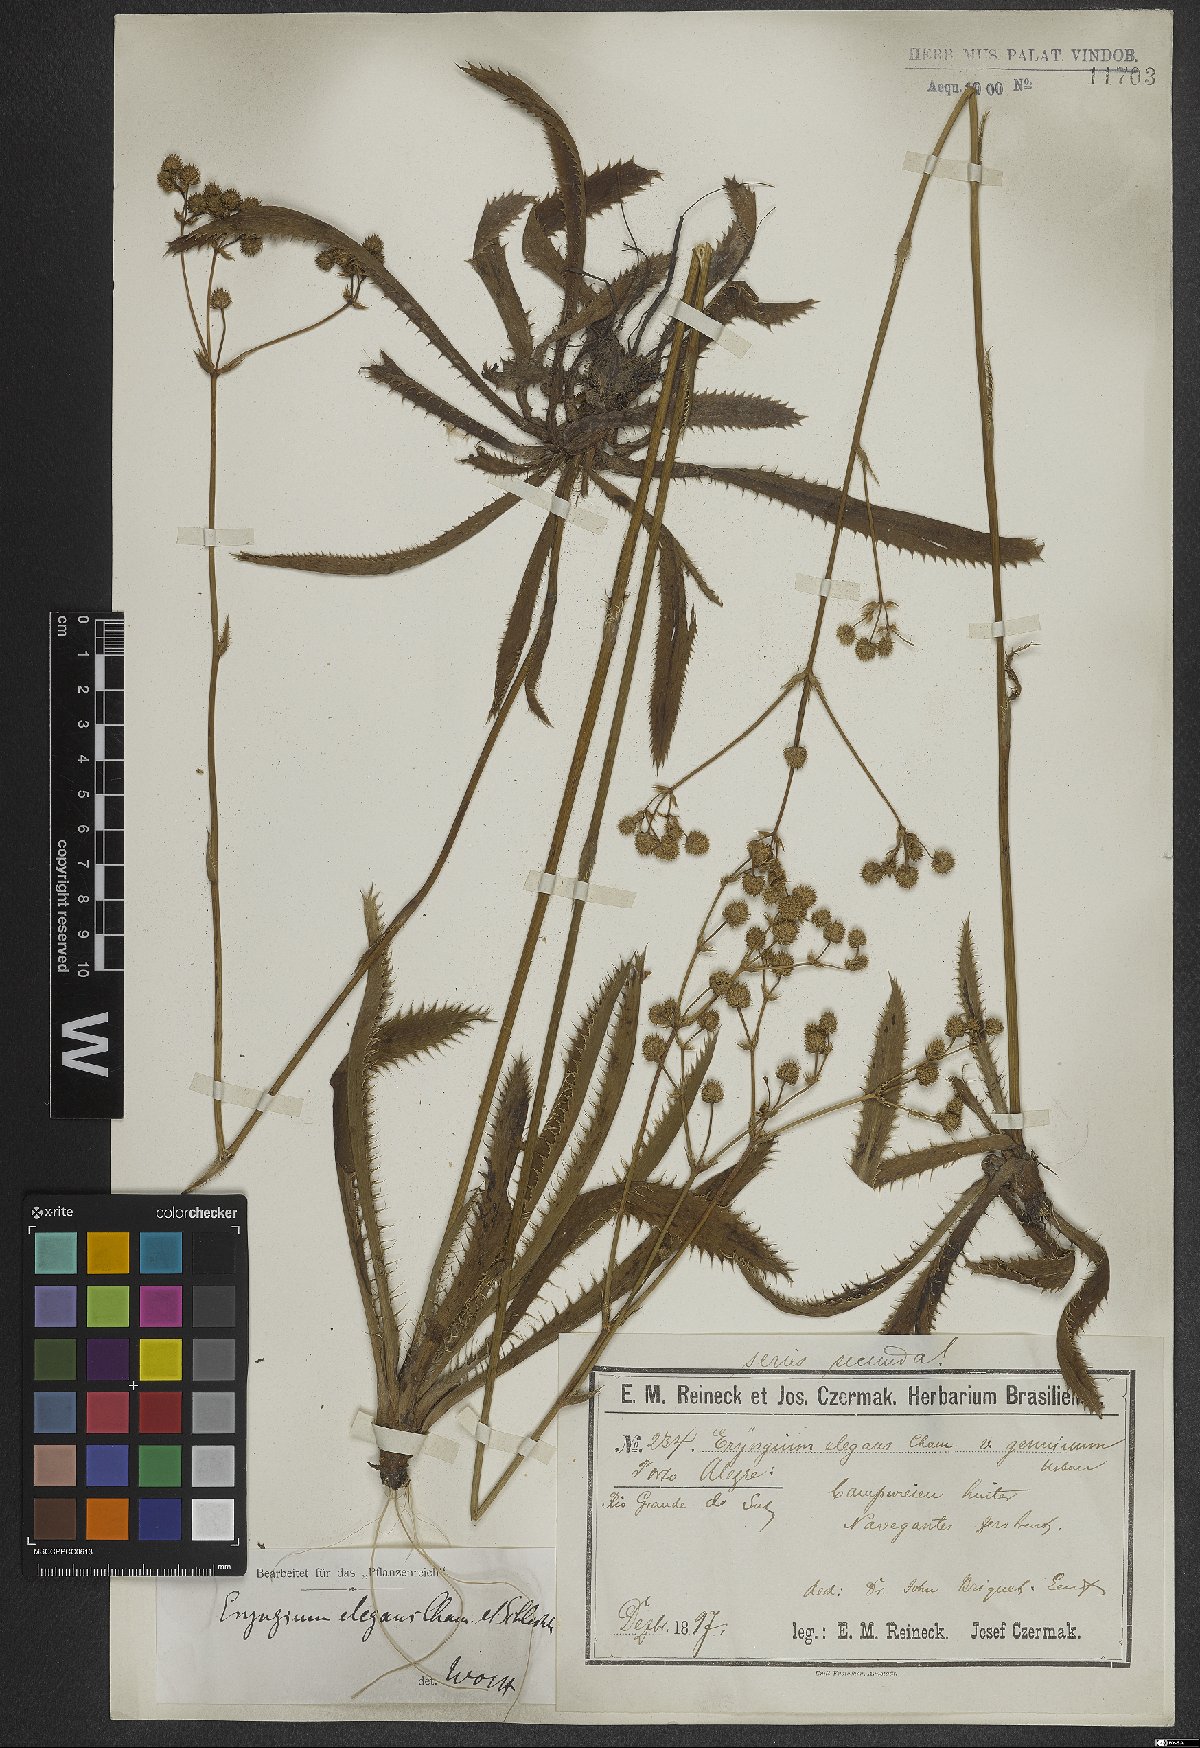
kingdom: Plantae
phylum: Tracheophyta
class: Magnoliopsida
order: Apiales
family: Apiaceae
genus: Eryngium
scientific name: Eryngium elegans
